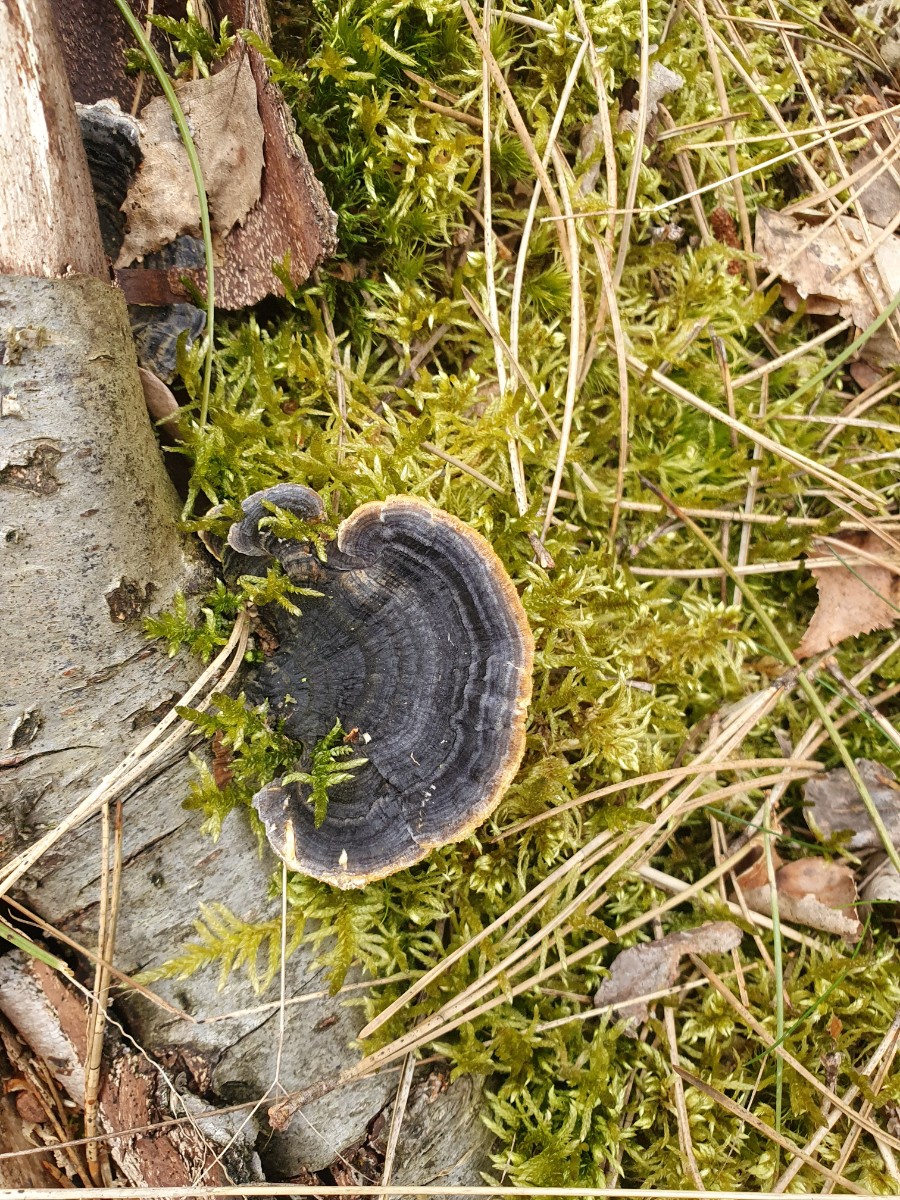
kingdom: Fungi
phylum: Basidiomycota
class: Agaricomycetes
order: Polyporales
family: Polyporaceae
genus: Trametes
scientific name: Trametes versicolor
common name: broget læderporesvamp
